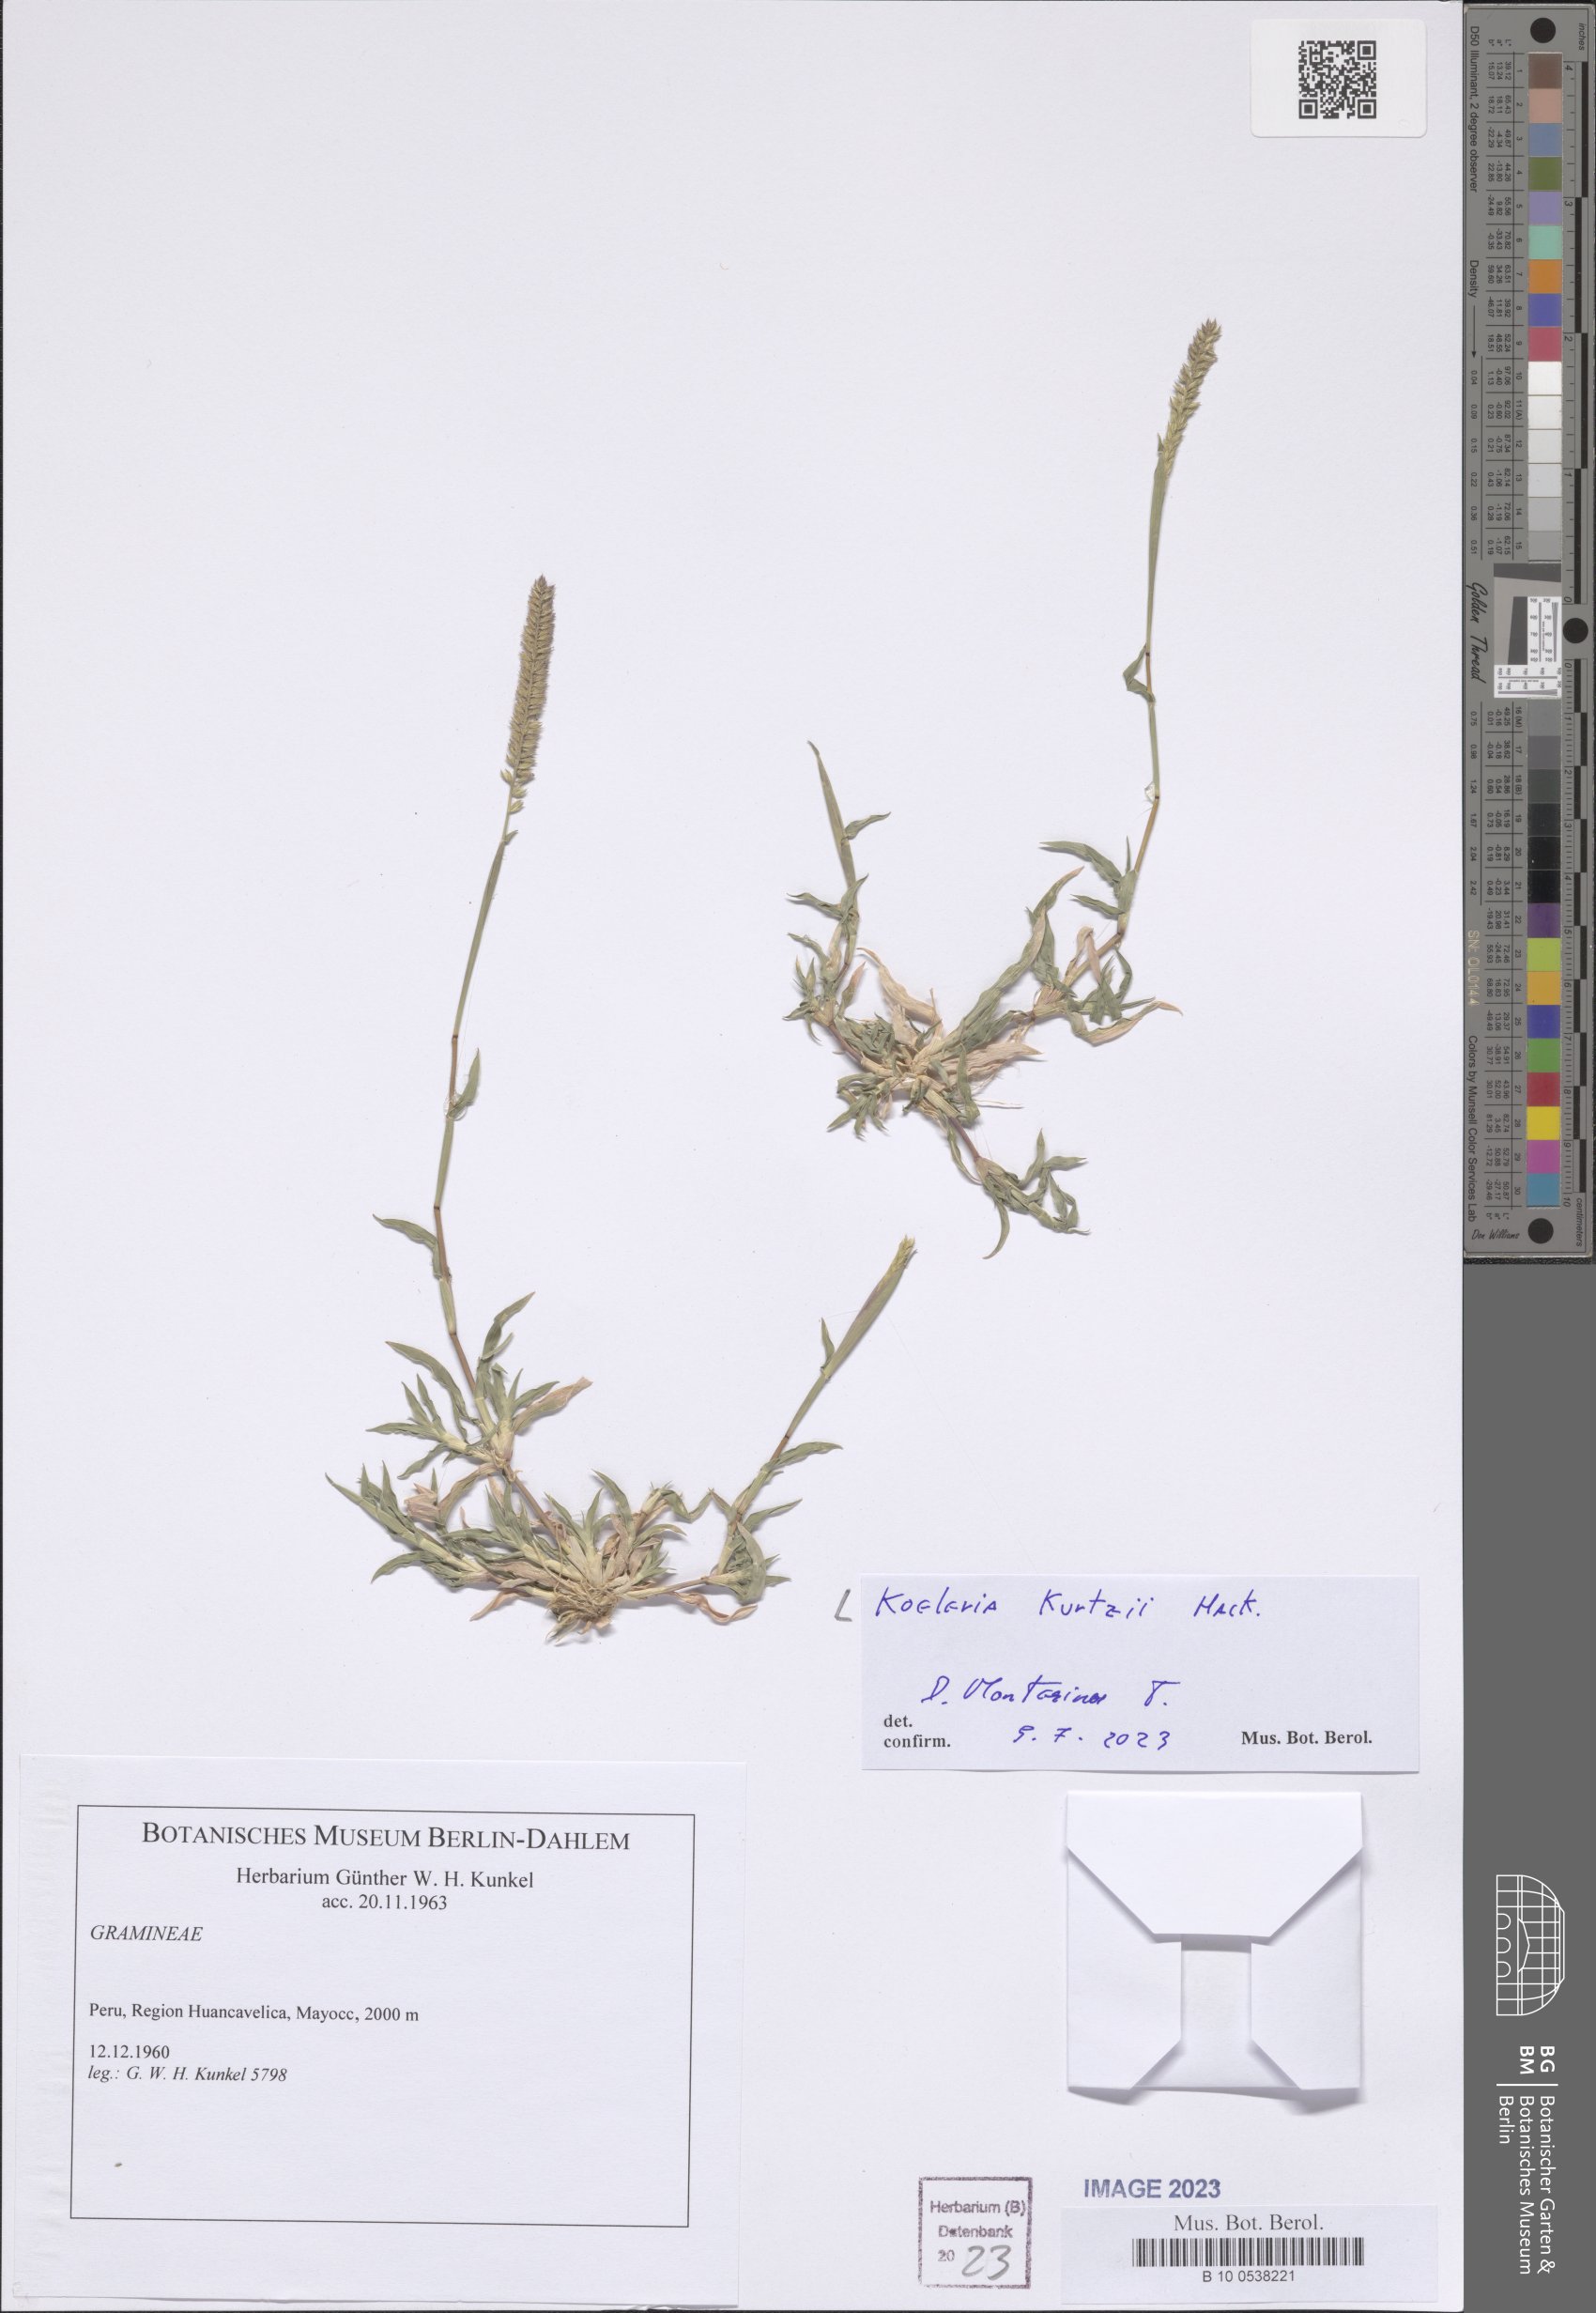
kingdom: Plantae
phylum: Tracheophyta
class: Liliopsida
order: Poales
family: Poaceae
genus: Koeleria
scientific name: Koeleria kurtzii
